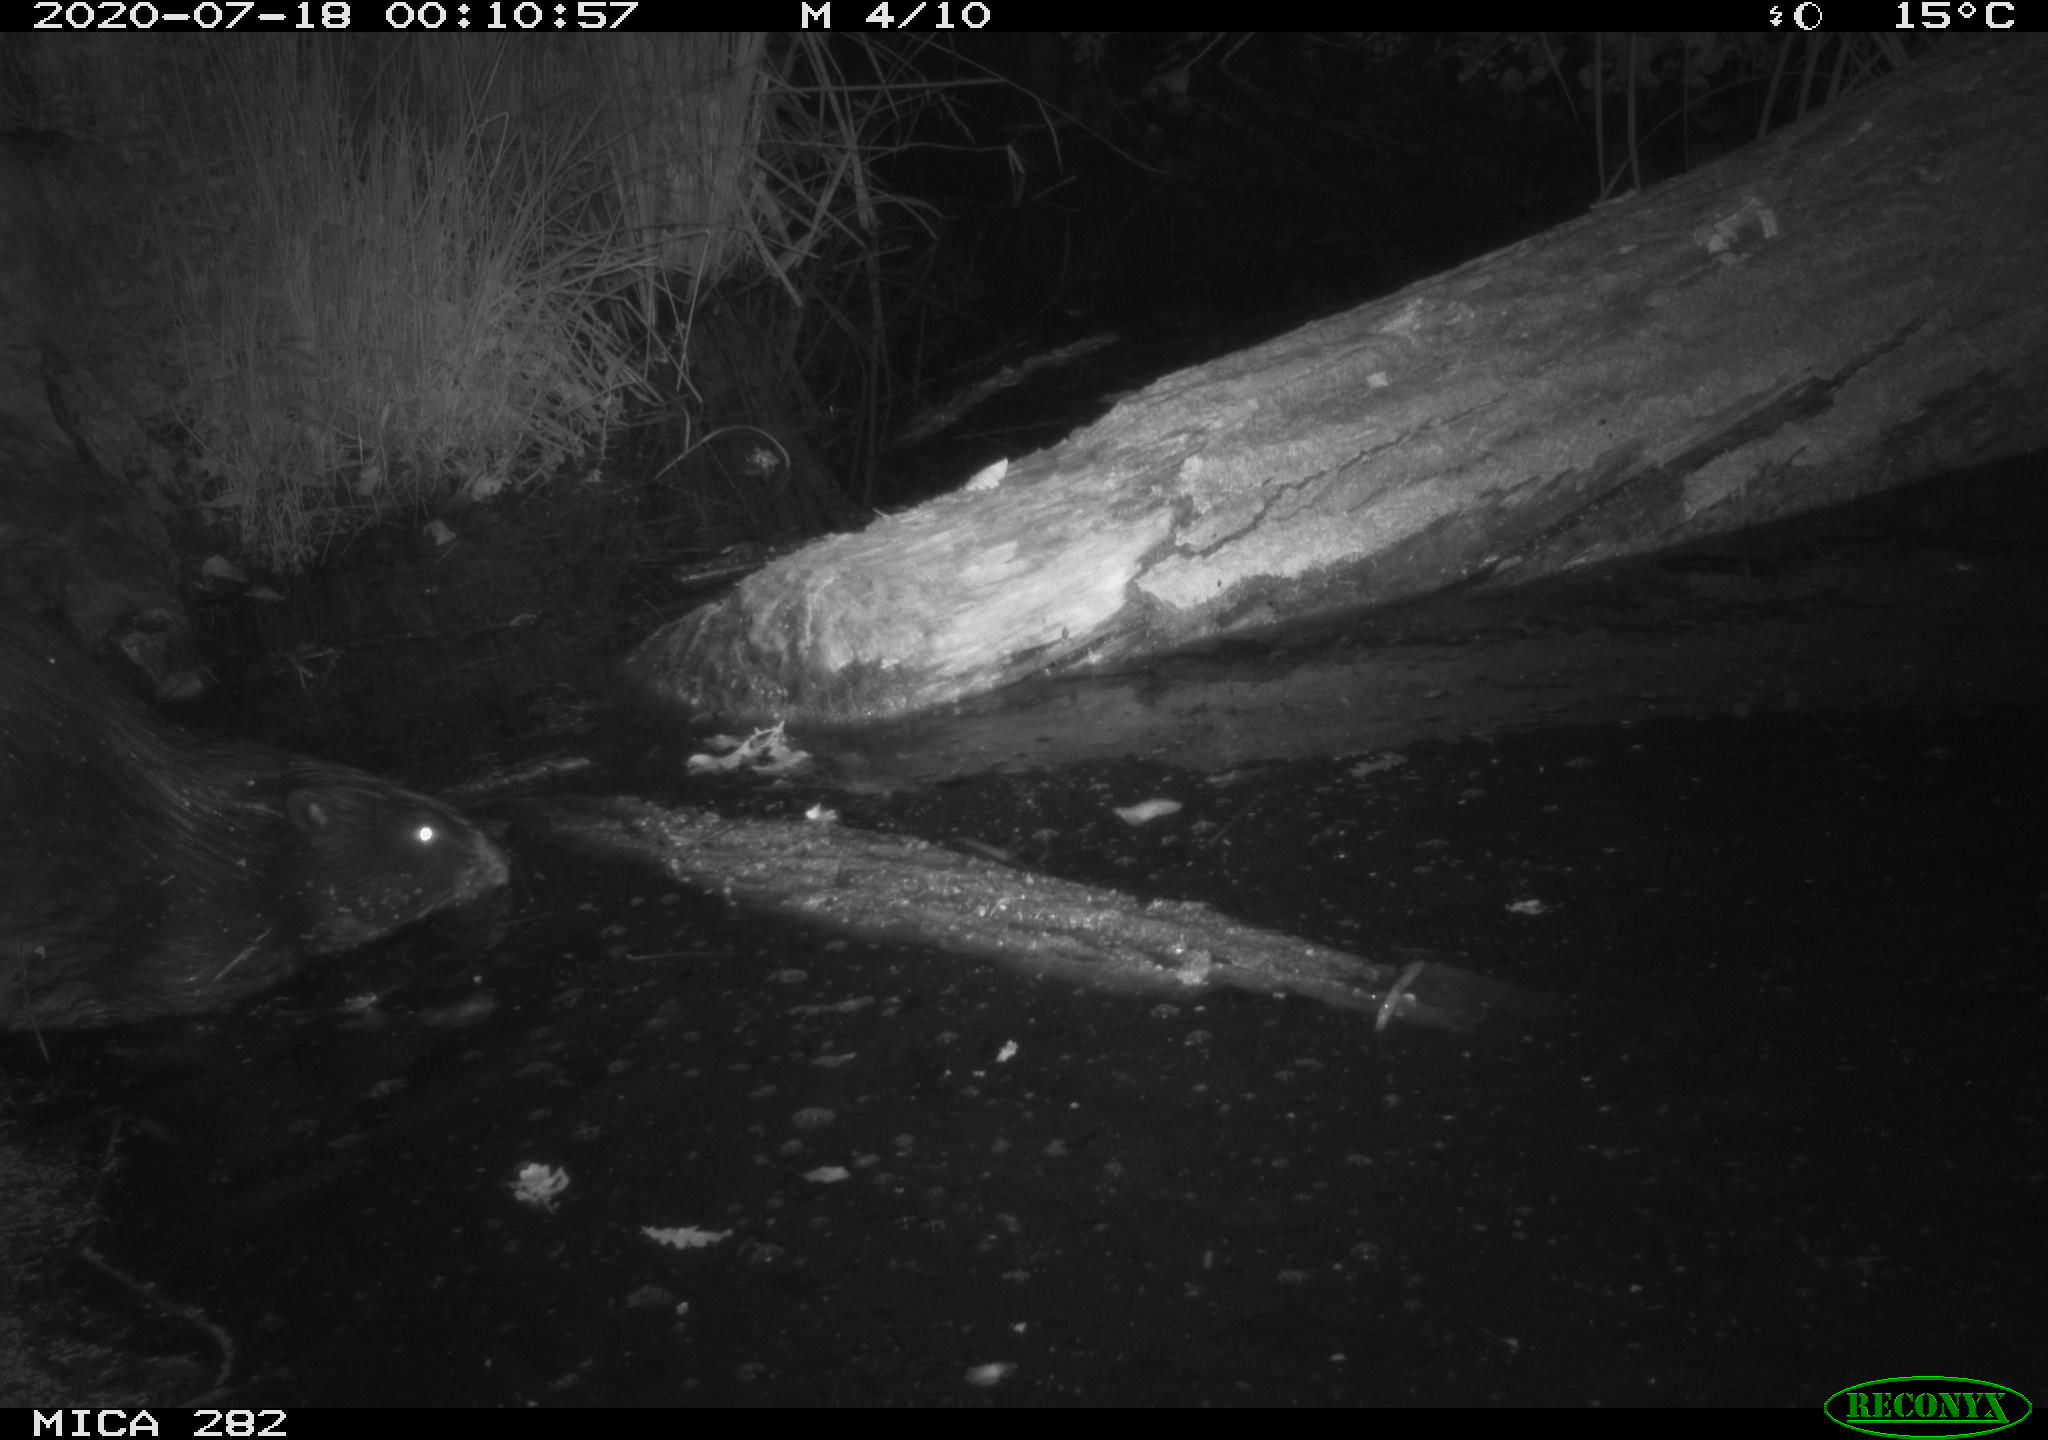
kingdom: Animalia
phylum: Chordata
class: Mammalia
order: Rodentia
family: Castoridae
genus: Castor
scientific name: Castor fiber
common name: Eurasian beaver
